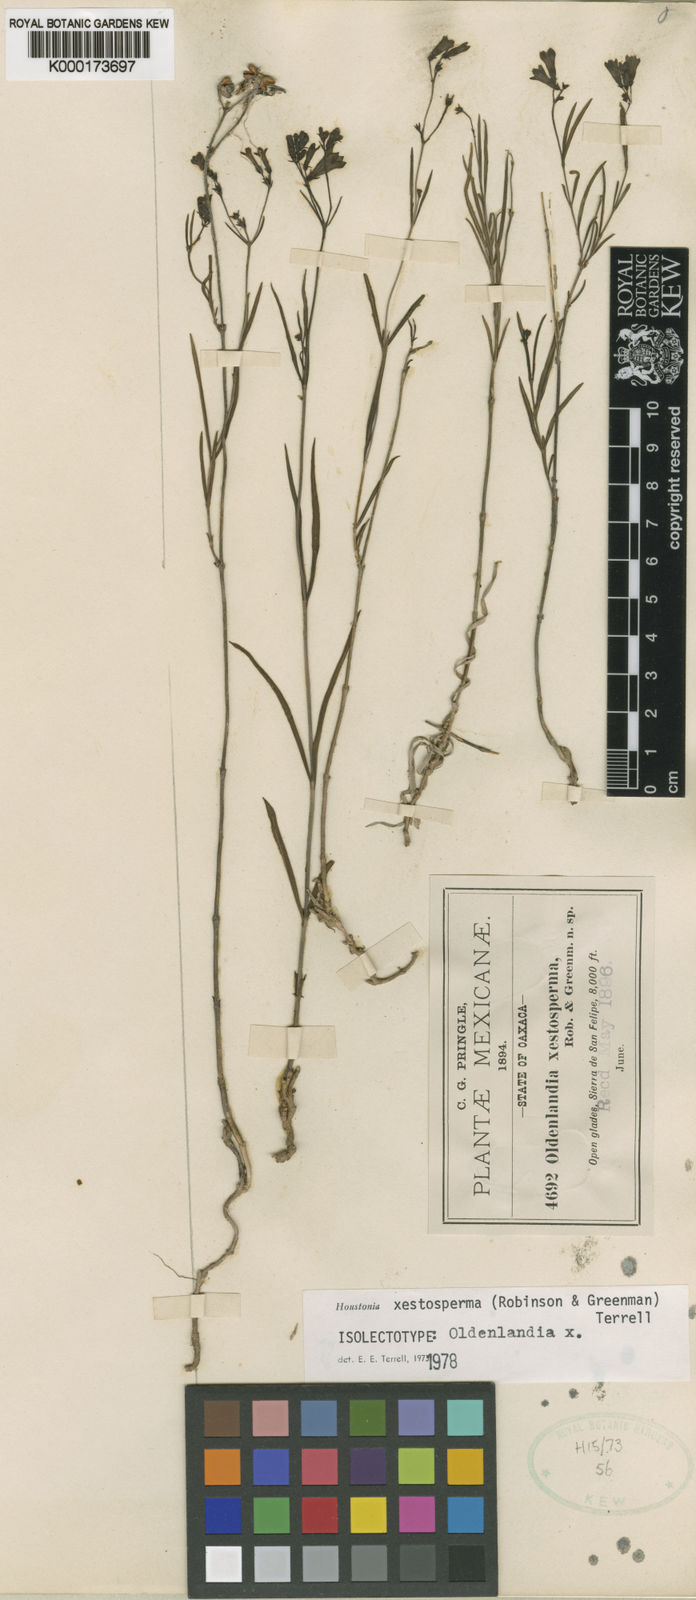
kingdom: Plantae
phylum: Tracheophyta
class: Magnoliopsida
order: Gentianales
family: Rubiaceae
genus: Bouvardia
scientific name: Bouvardia
